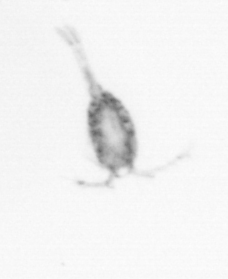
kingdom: Animalia
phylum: Arthropoda
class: Copepoda
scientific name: Copepoda
